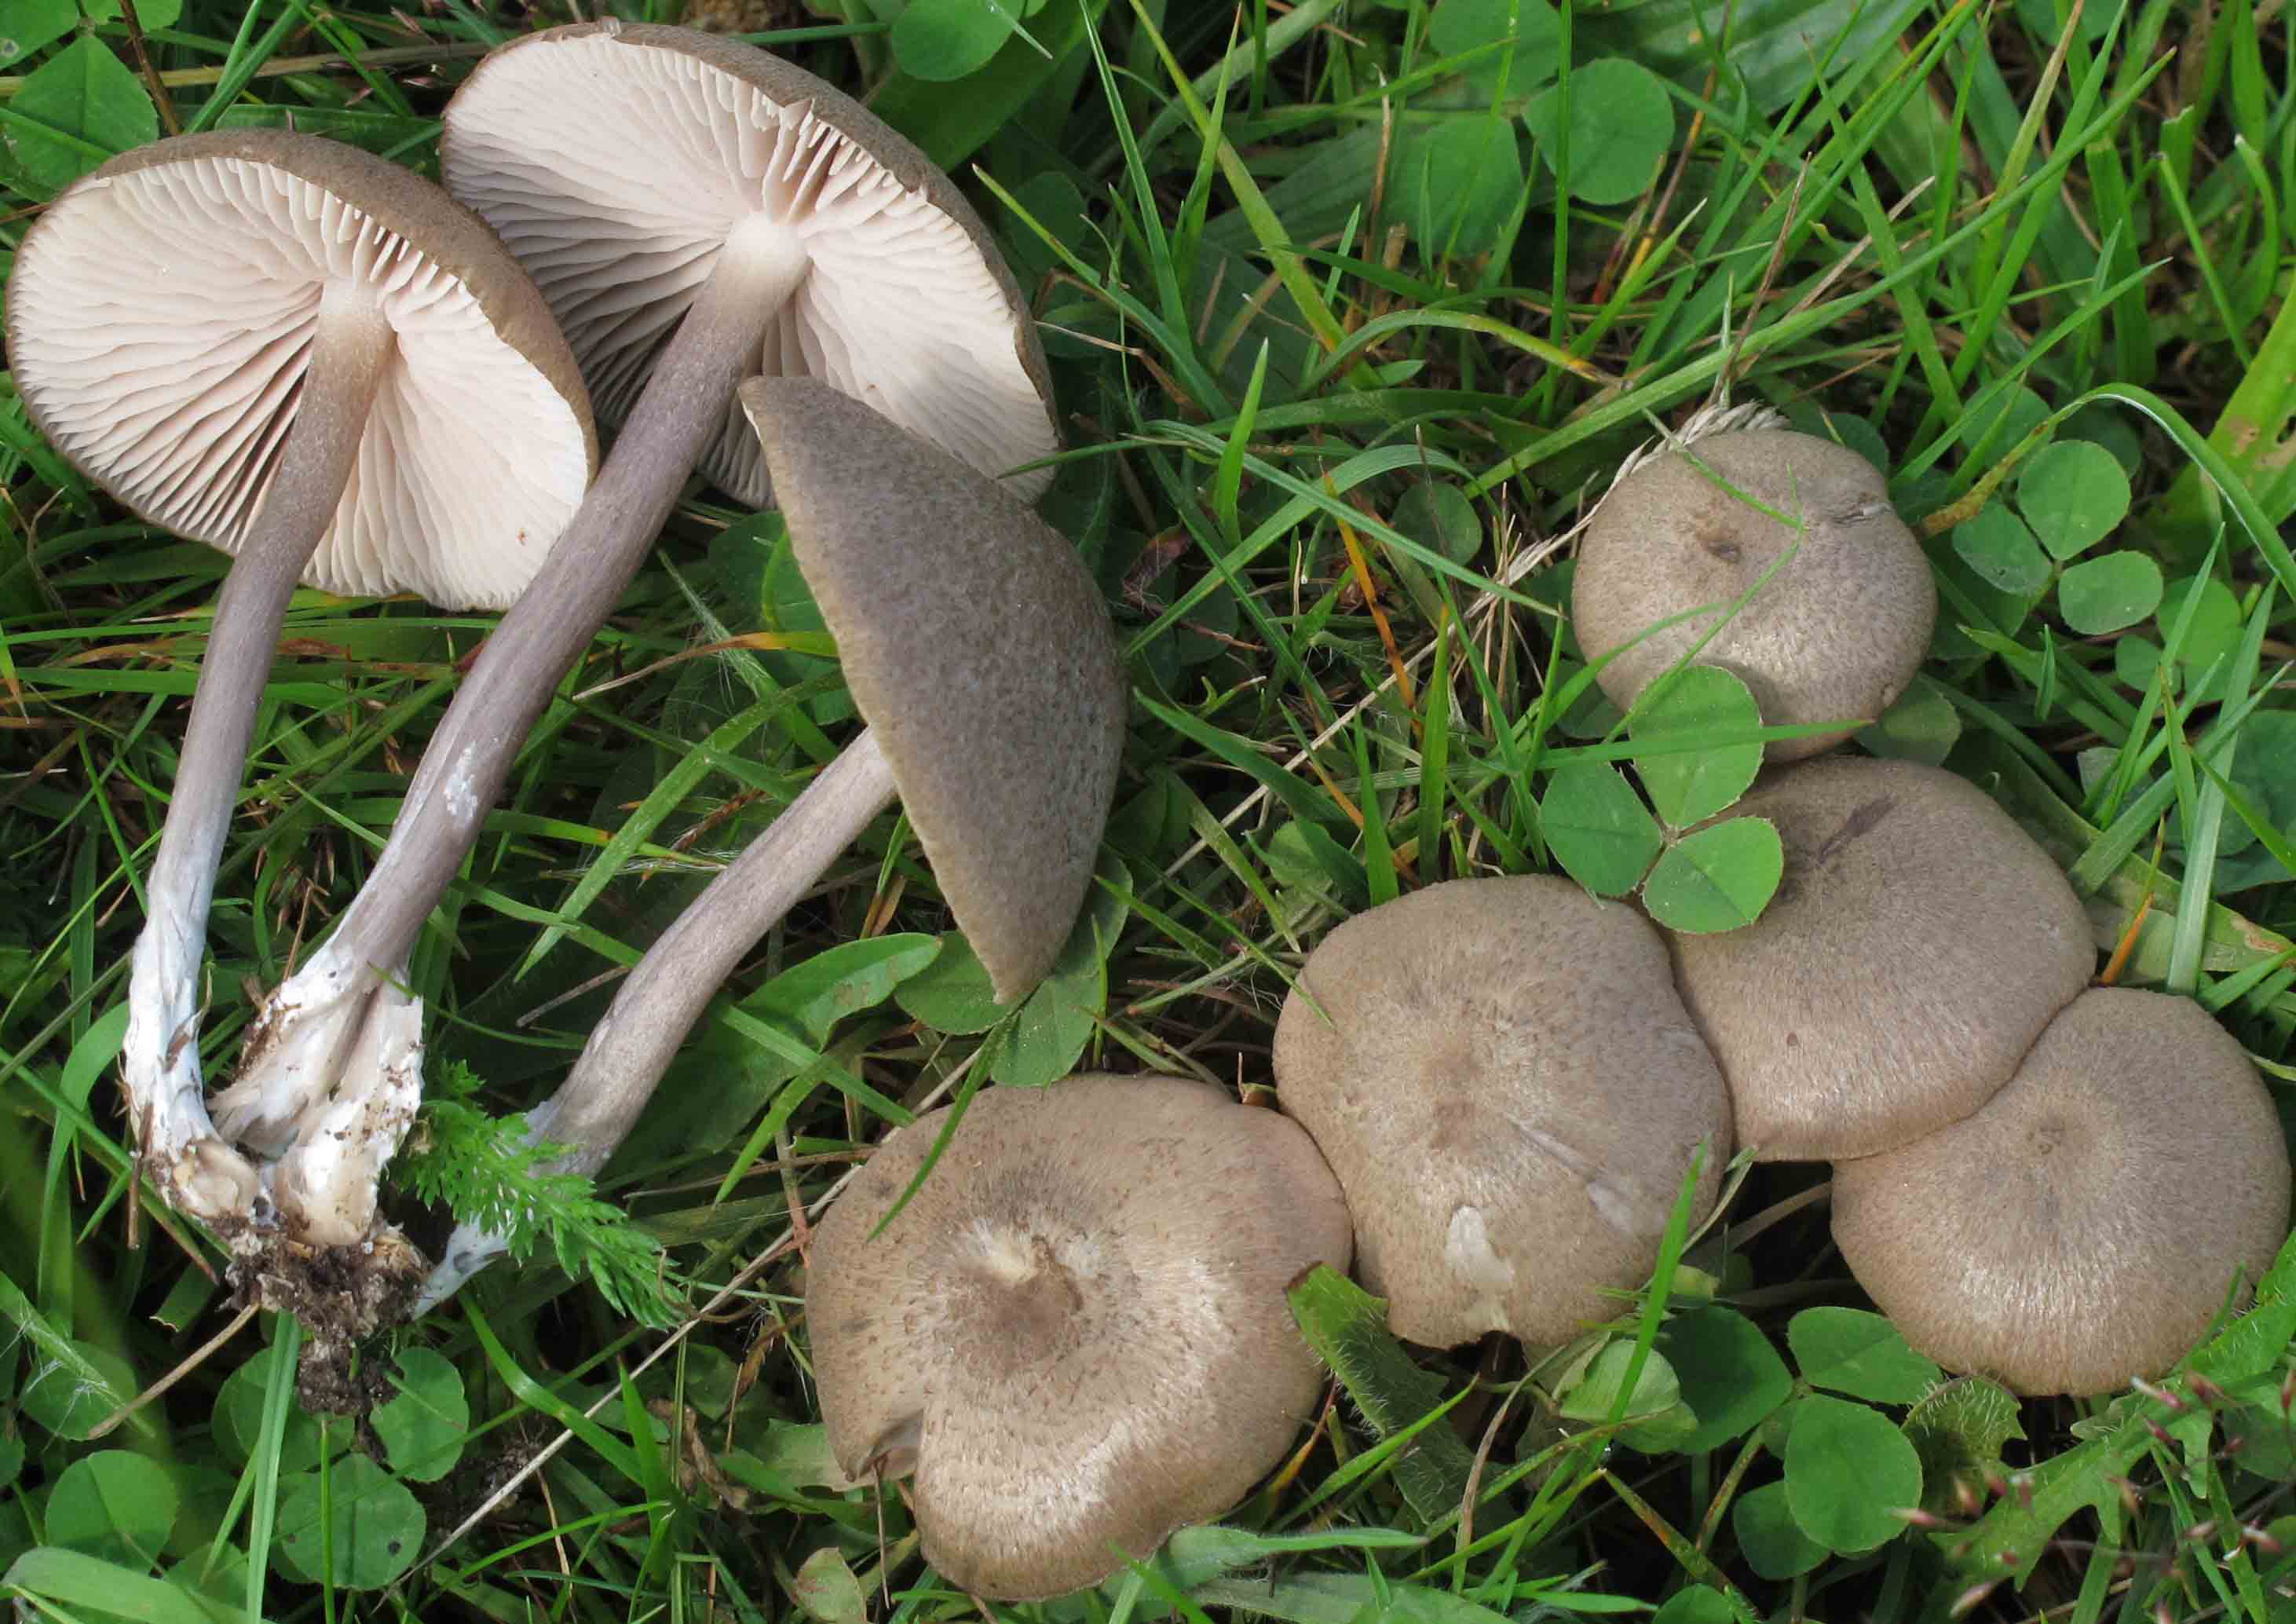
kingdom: Fungi
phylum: Basidiomycota
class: Agaricomycetes
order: Agaricales
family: Entolomataceae
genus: Entoloma
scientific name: Entoloma griseocyaneum
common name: gråblå rødblad
